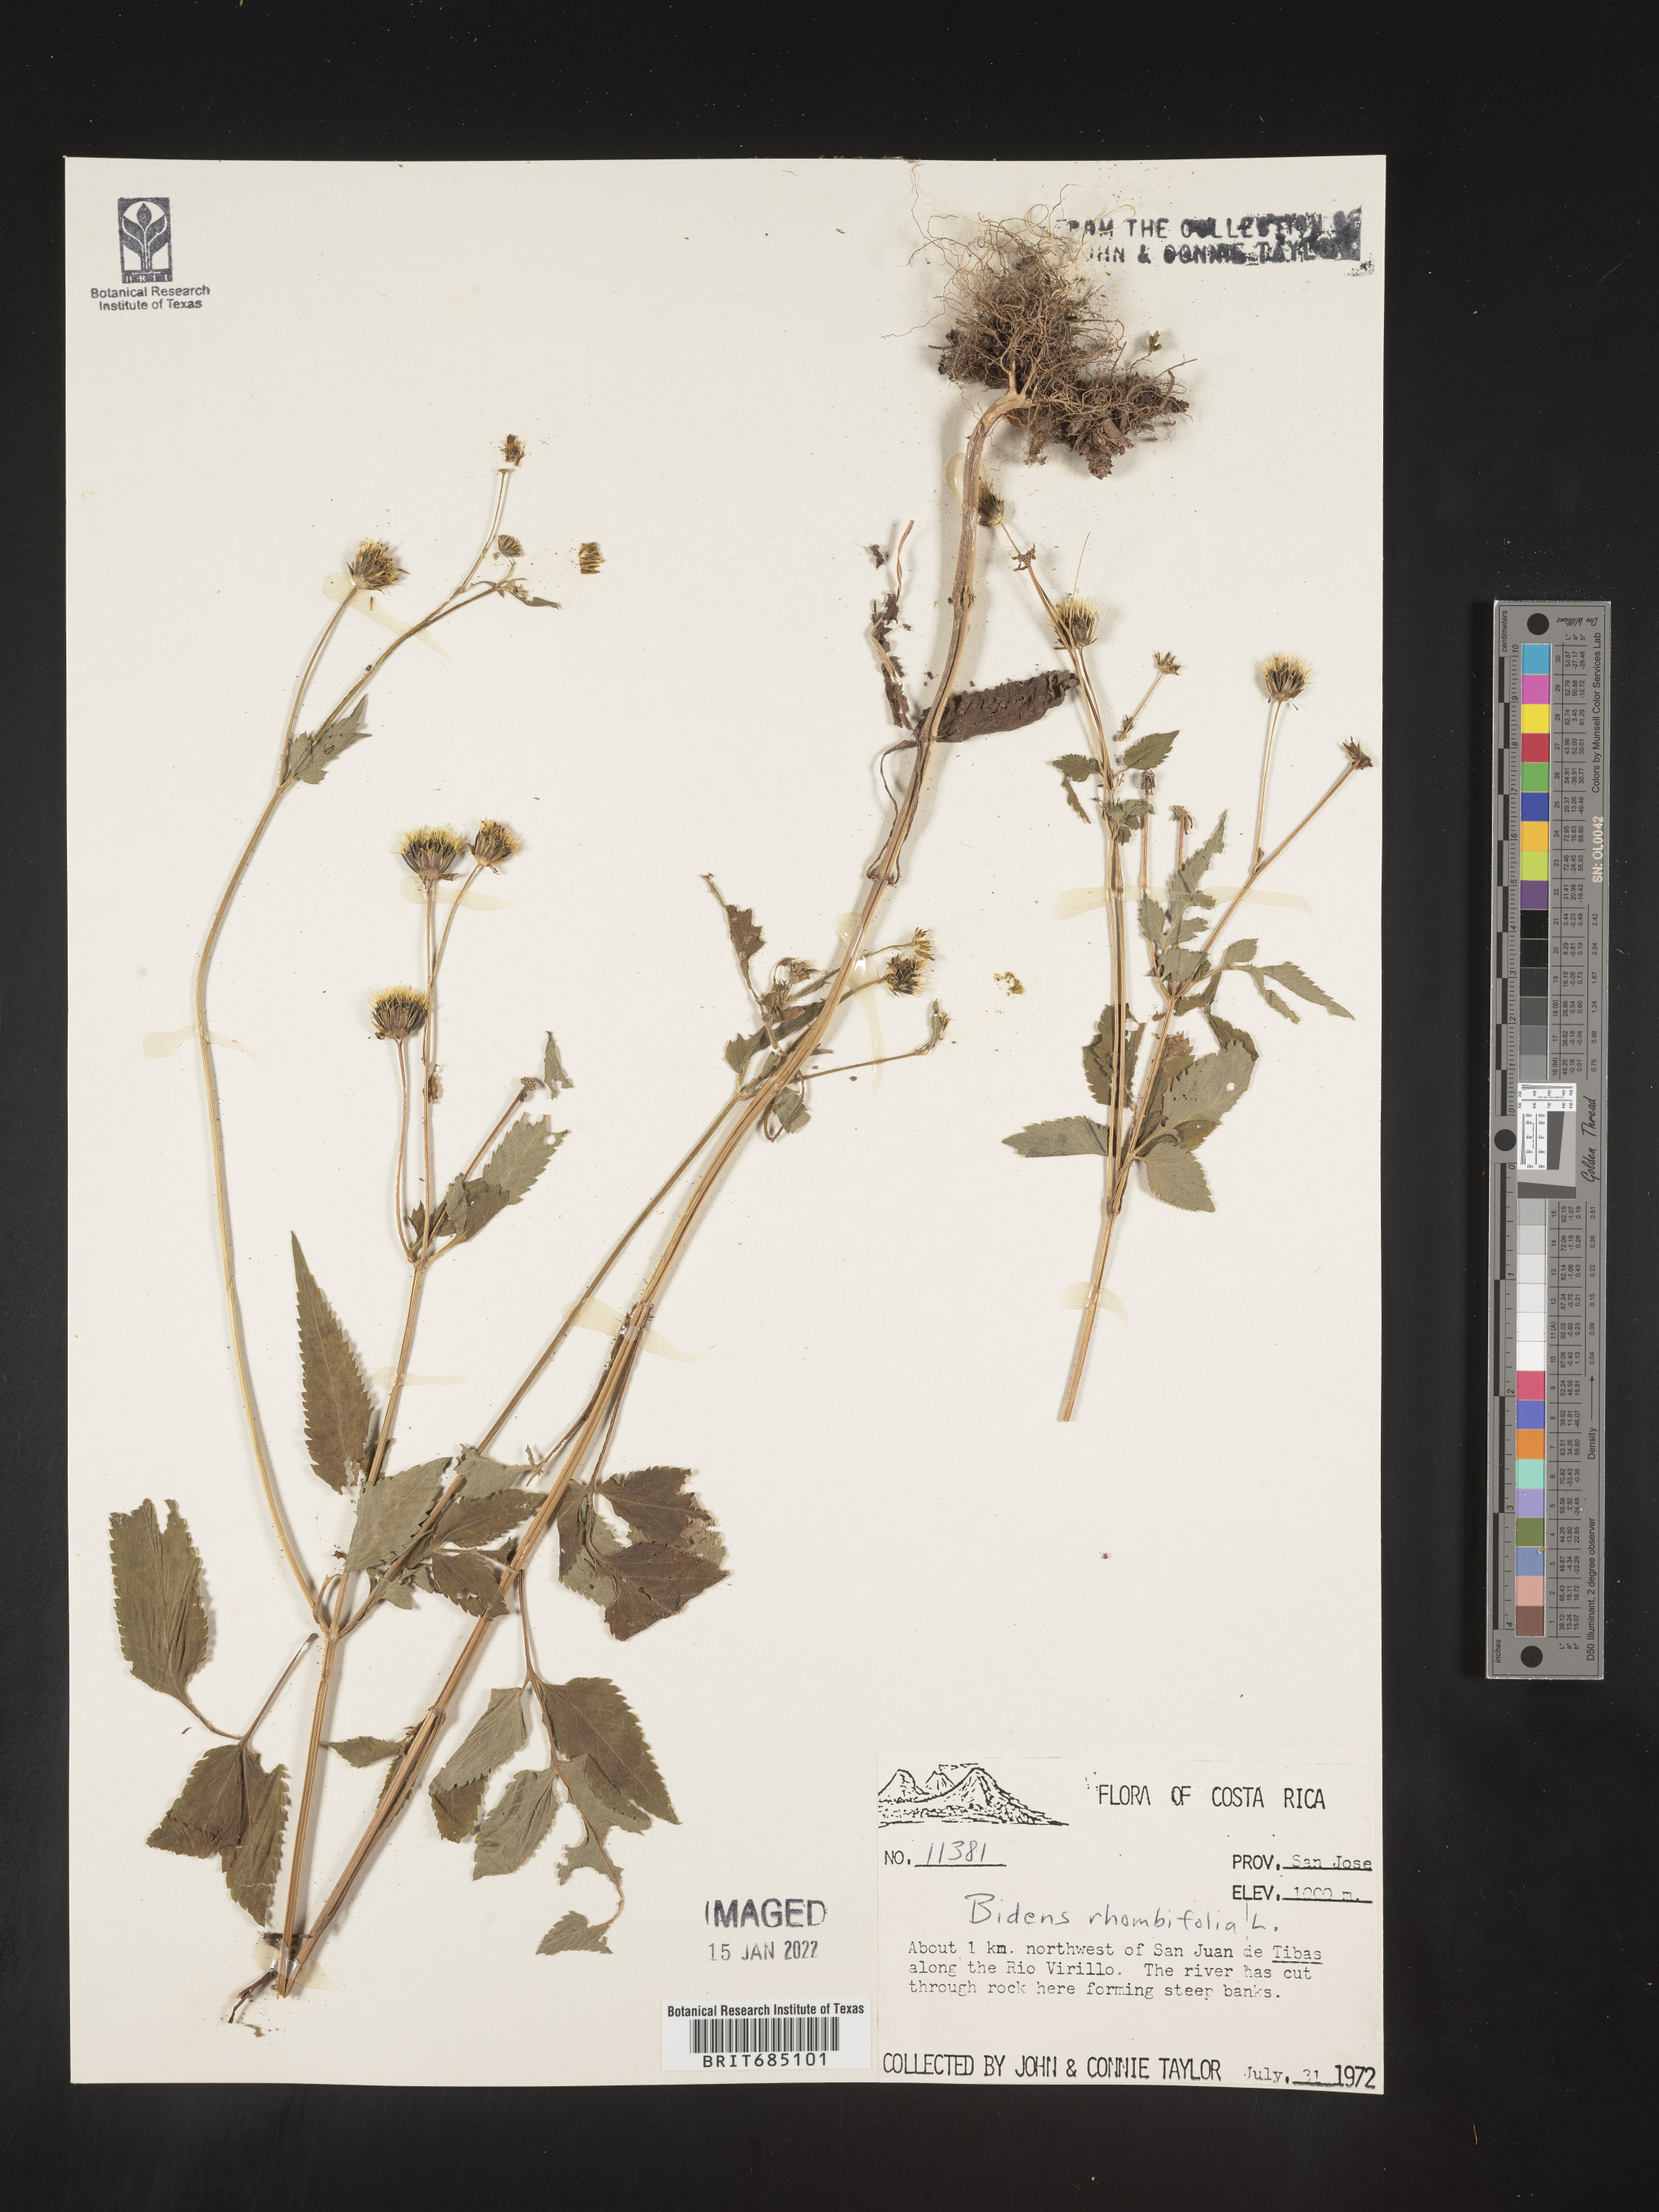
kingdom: Plantae
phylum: Tracheophyta
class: Magnoliopsida
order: Asterales
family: Asteraceae
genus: Bidens
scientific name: Bidens
